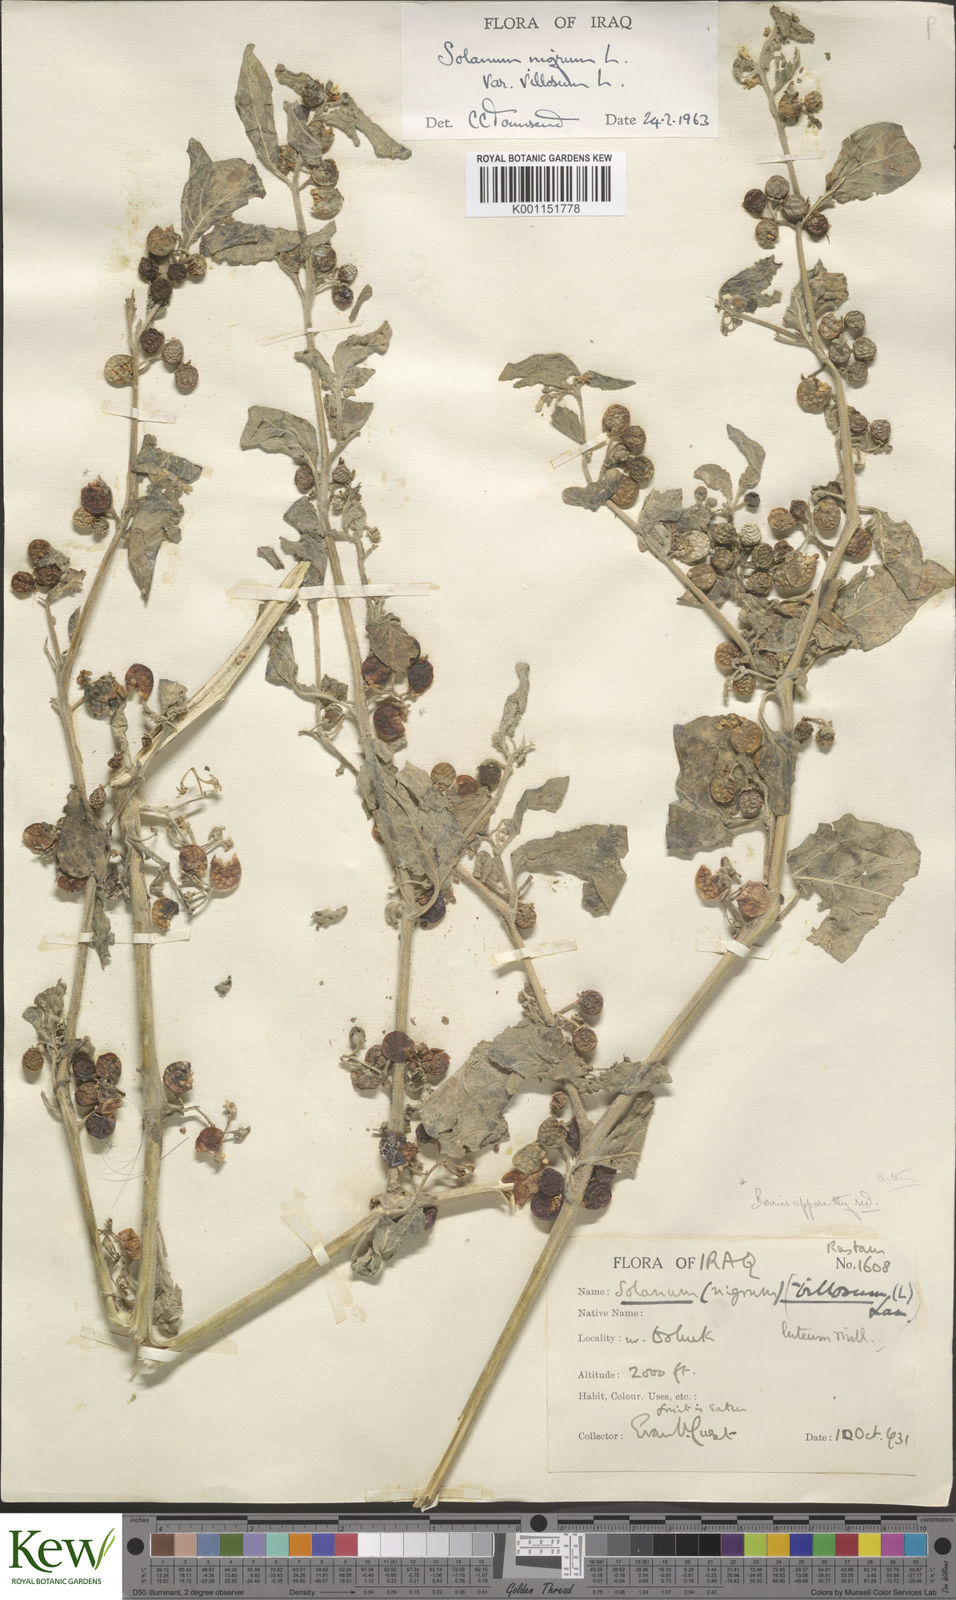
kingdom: Plantae
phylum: Tracheophyta
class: Magnoliopsida
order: Solanales
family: Solanaceae
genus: Solanum
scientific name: Solanum villosum
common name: Red nightshade
